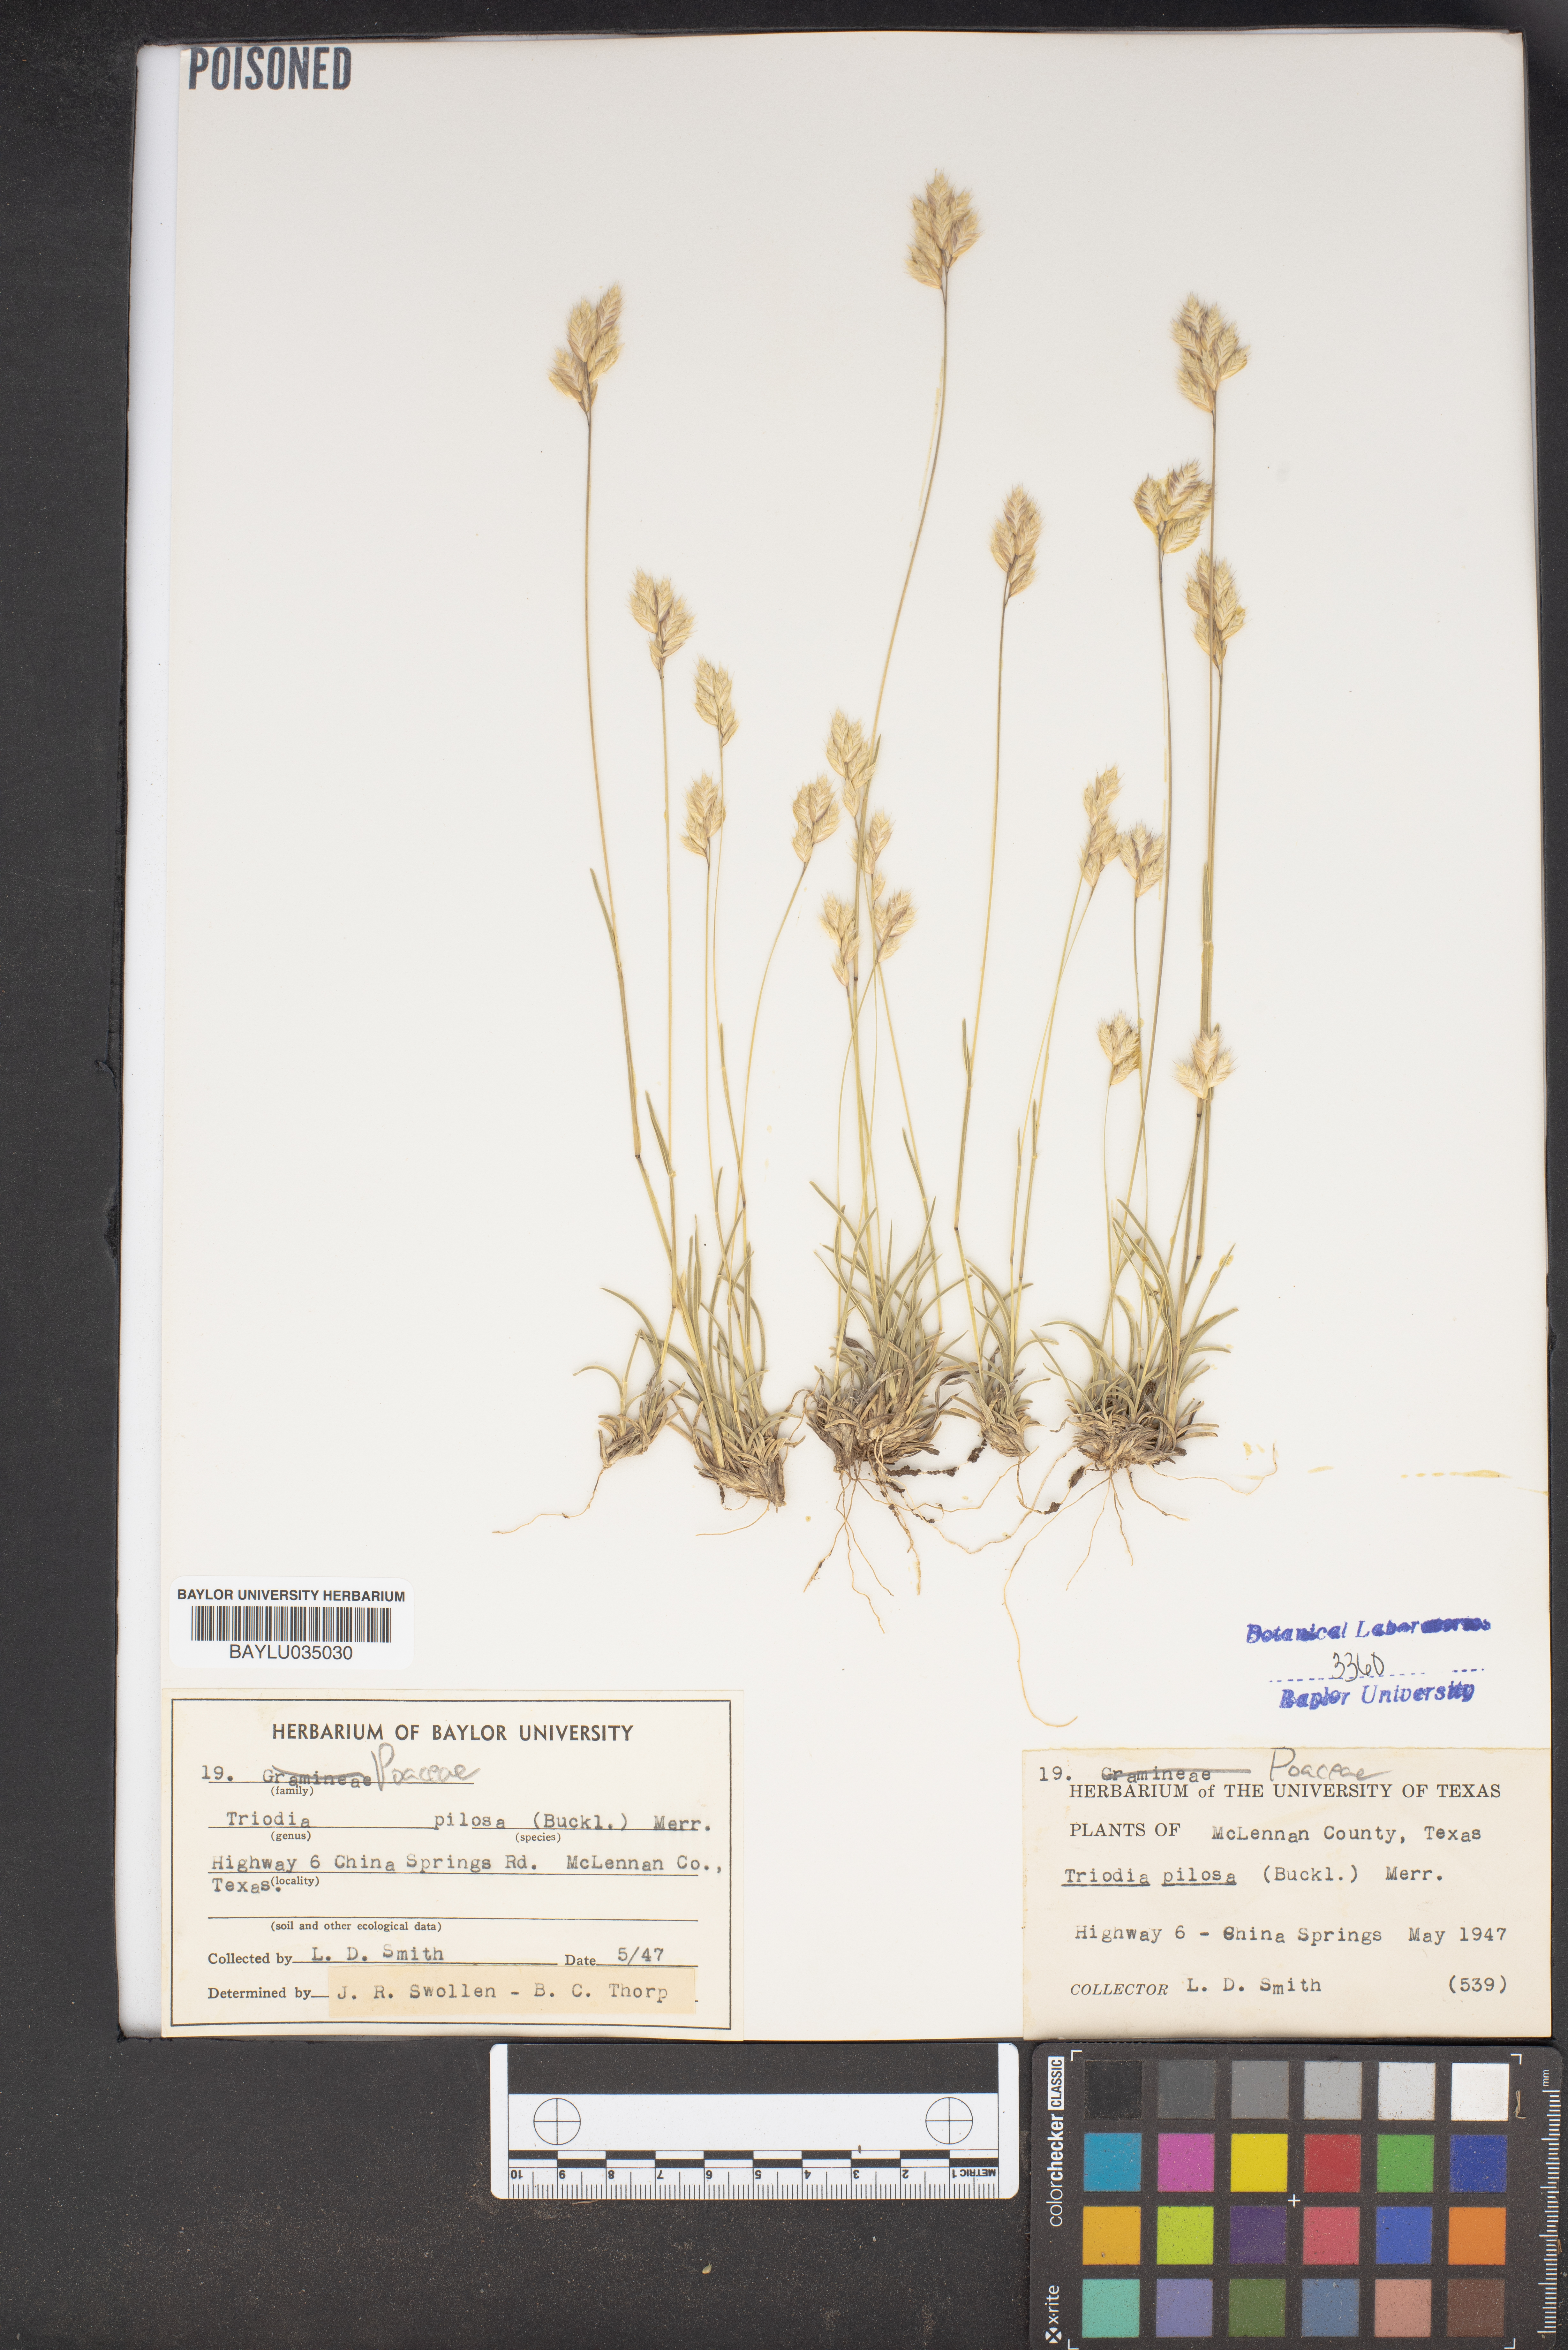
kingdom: Plantae
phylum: Tracheophyta
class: Liliopsida
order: Poales
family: Poaceae
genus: Triodia
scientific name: Triodia pilosa
